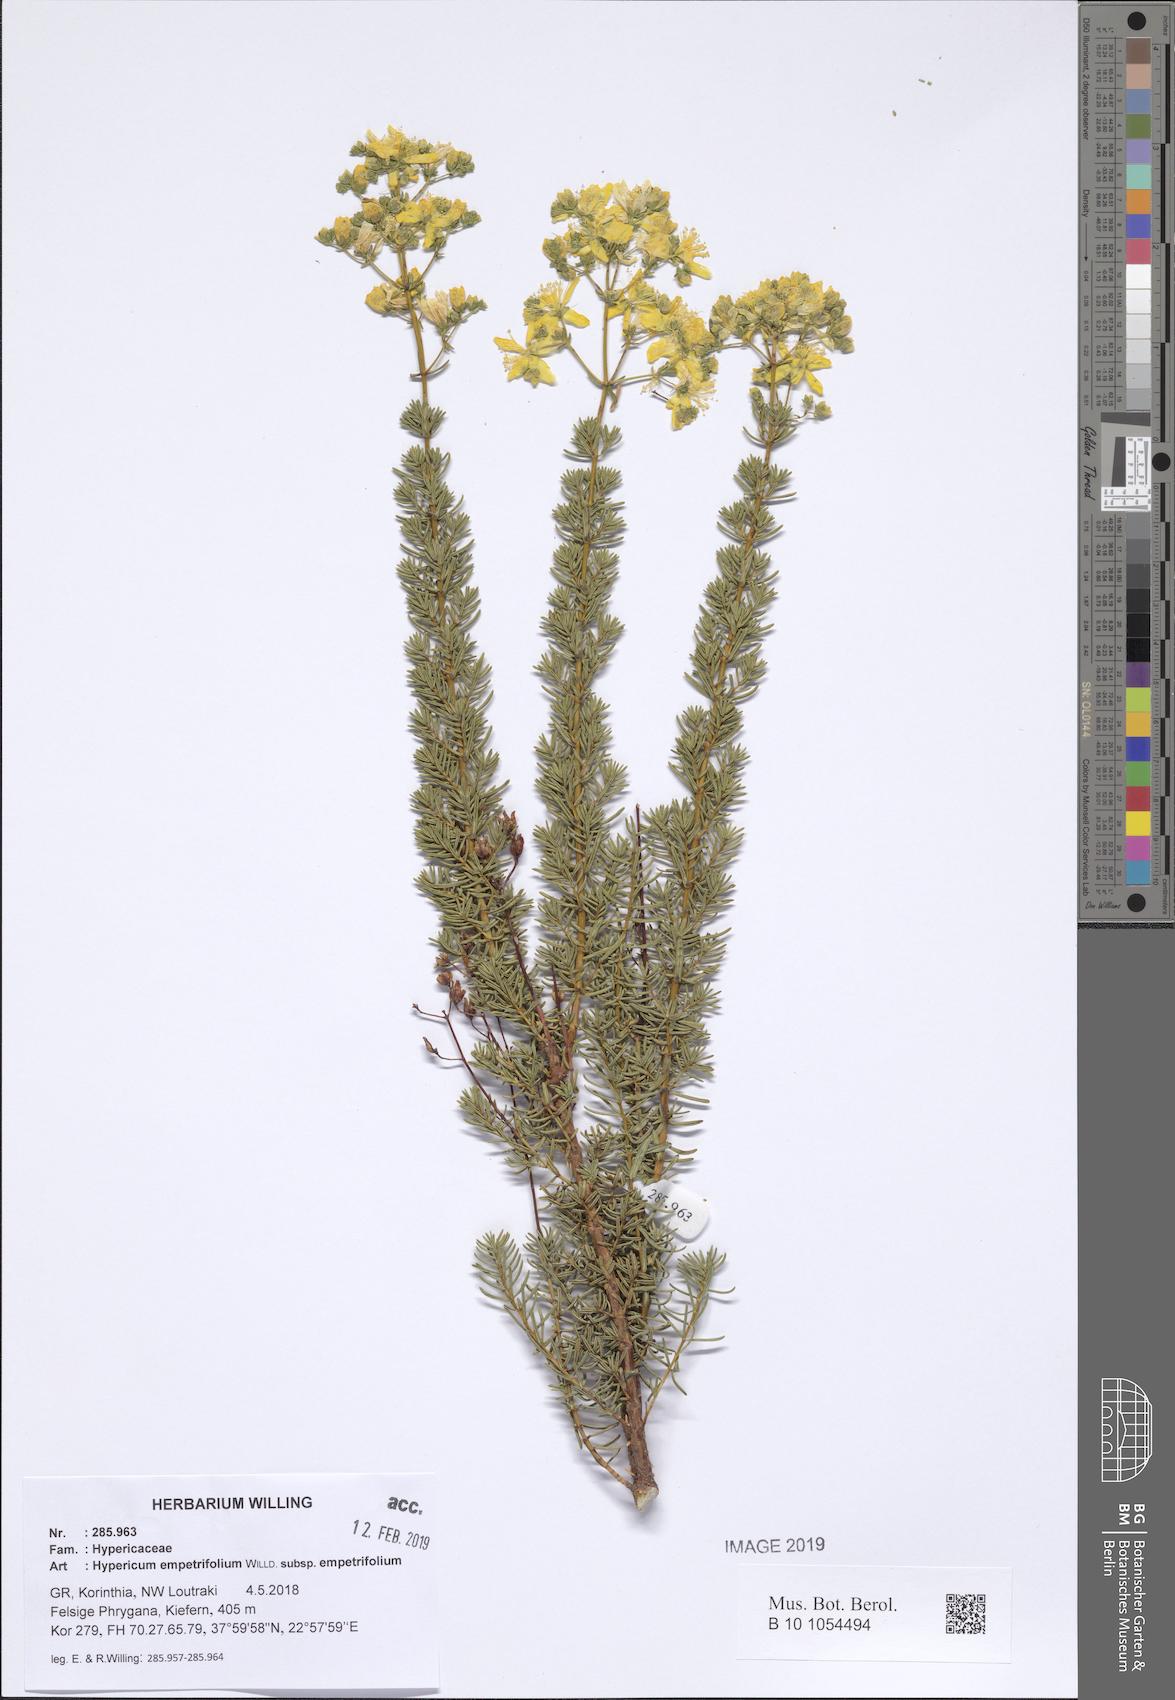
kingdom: Plantae
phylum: Tracheophyta
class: Magnoliopsida
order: Malpighiales
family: Hypericaceae
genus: Hypericum
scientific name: Hypericum empetrifolium
